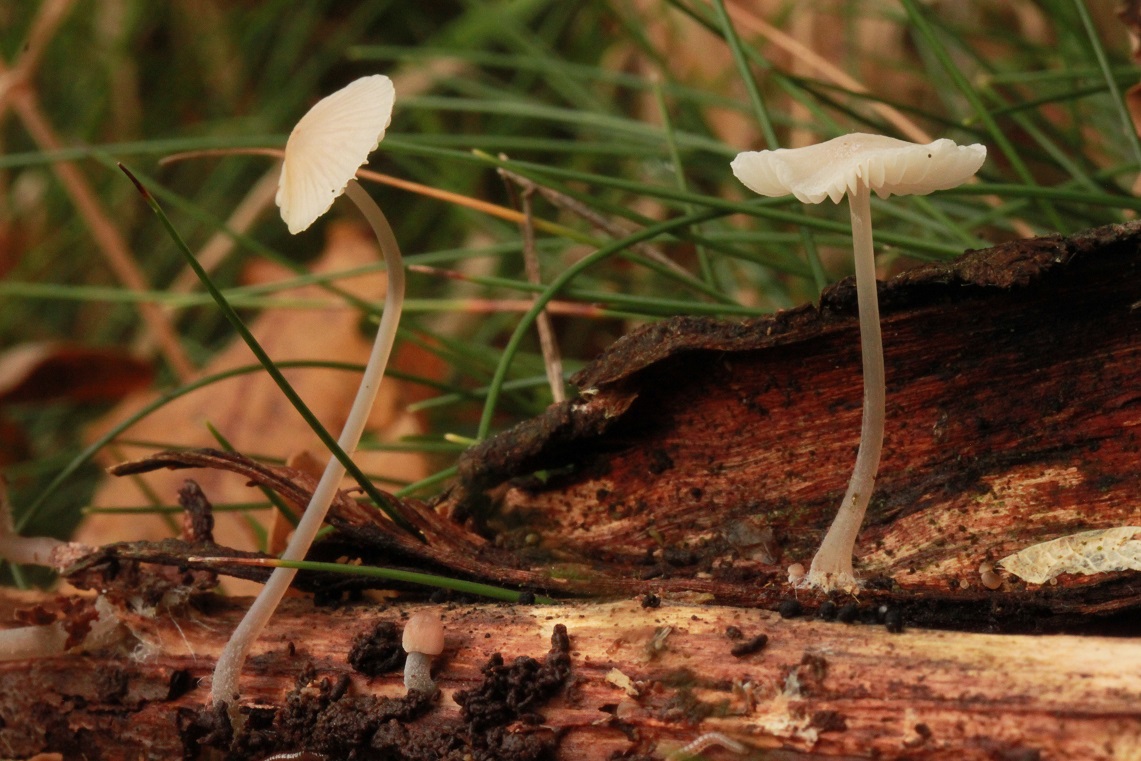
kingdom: Fungi
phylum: Basidiomycota
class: Agaricomycetes
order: Agaricales
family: Mycenaceae
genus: Mycena
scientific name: Mycena
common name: huesvamp
